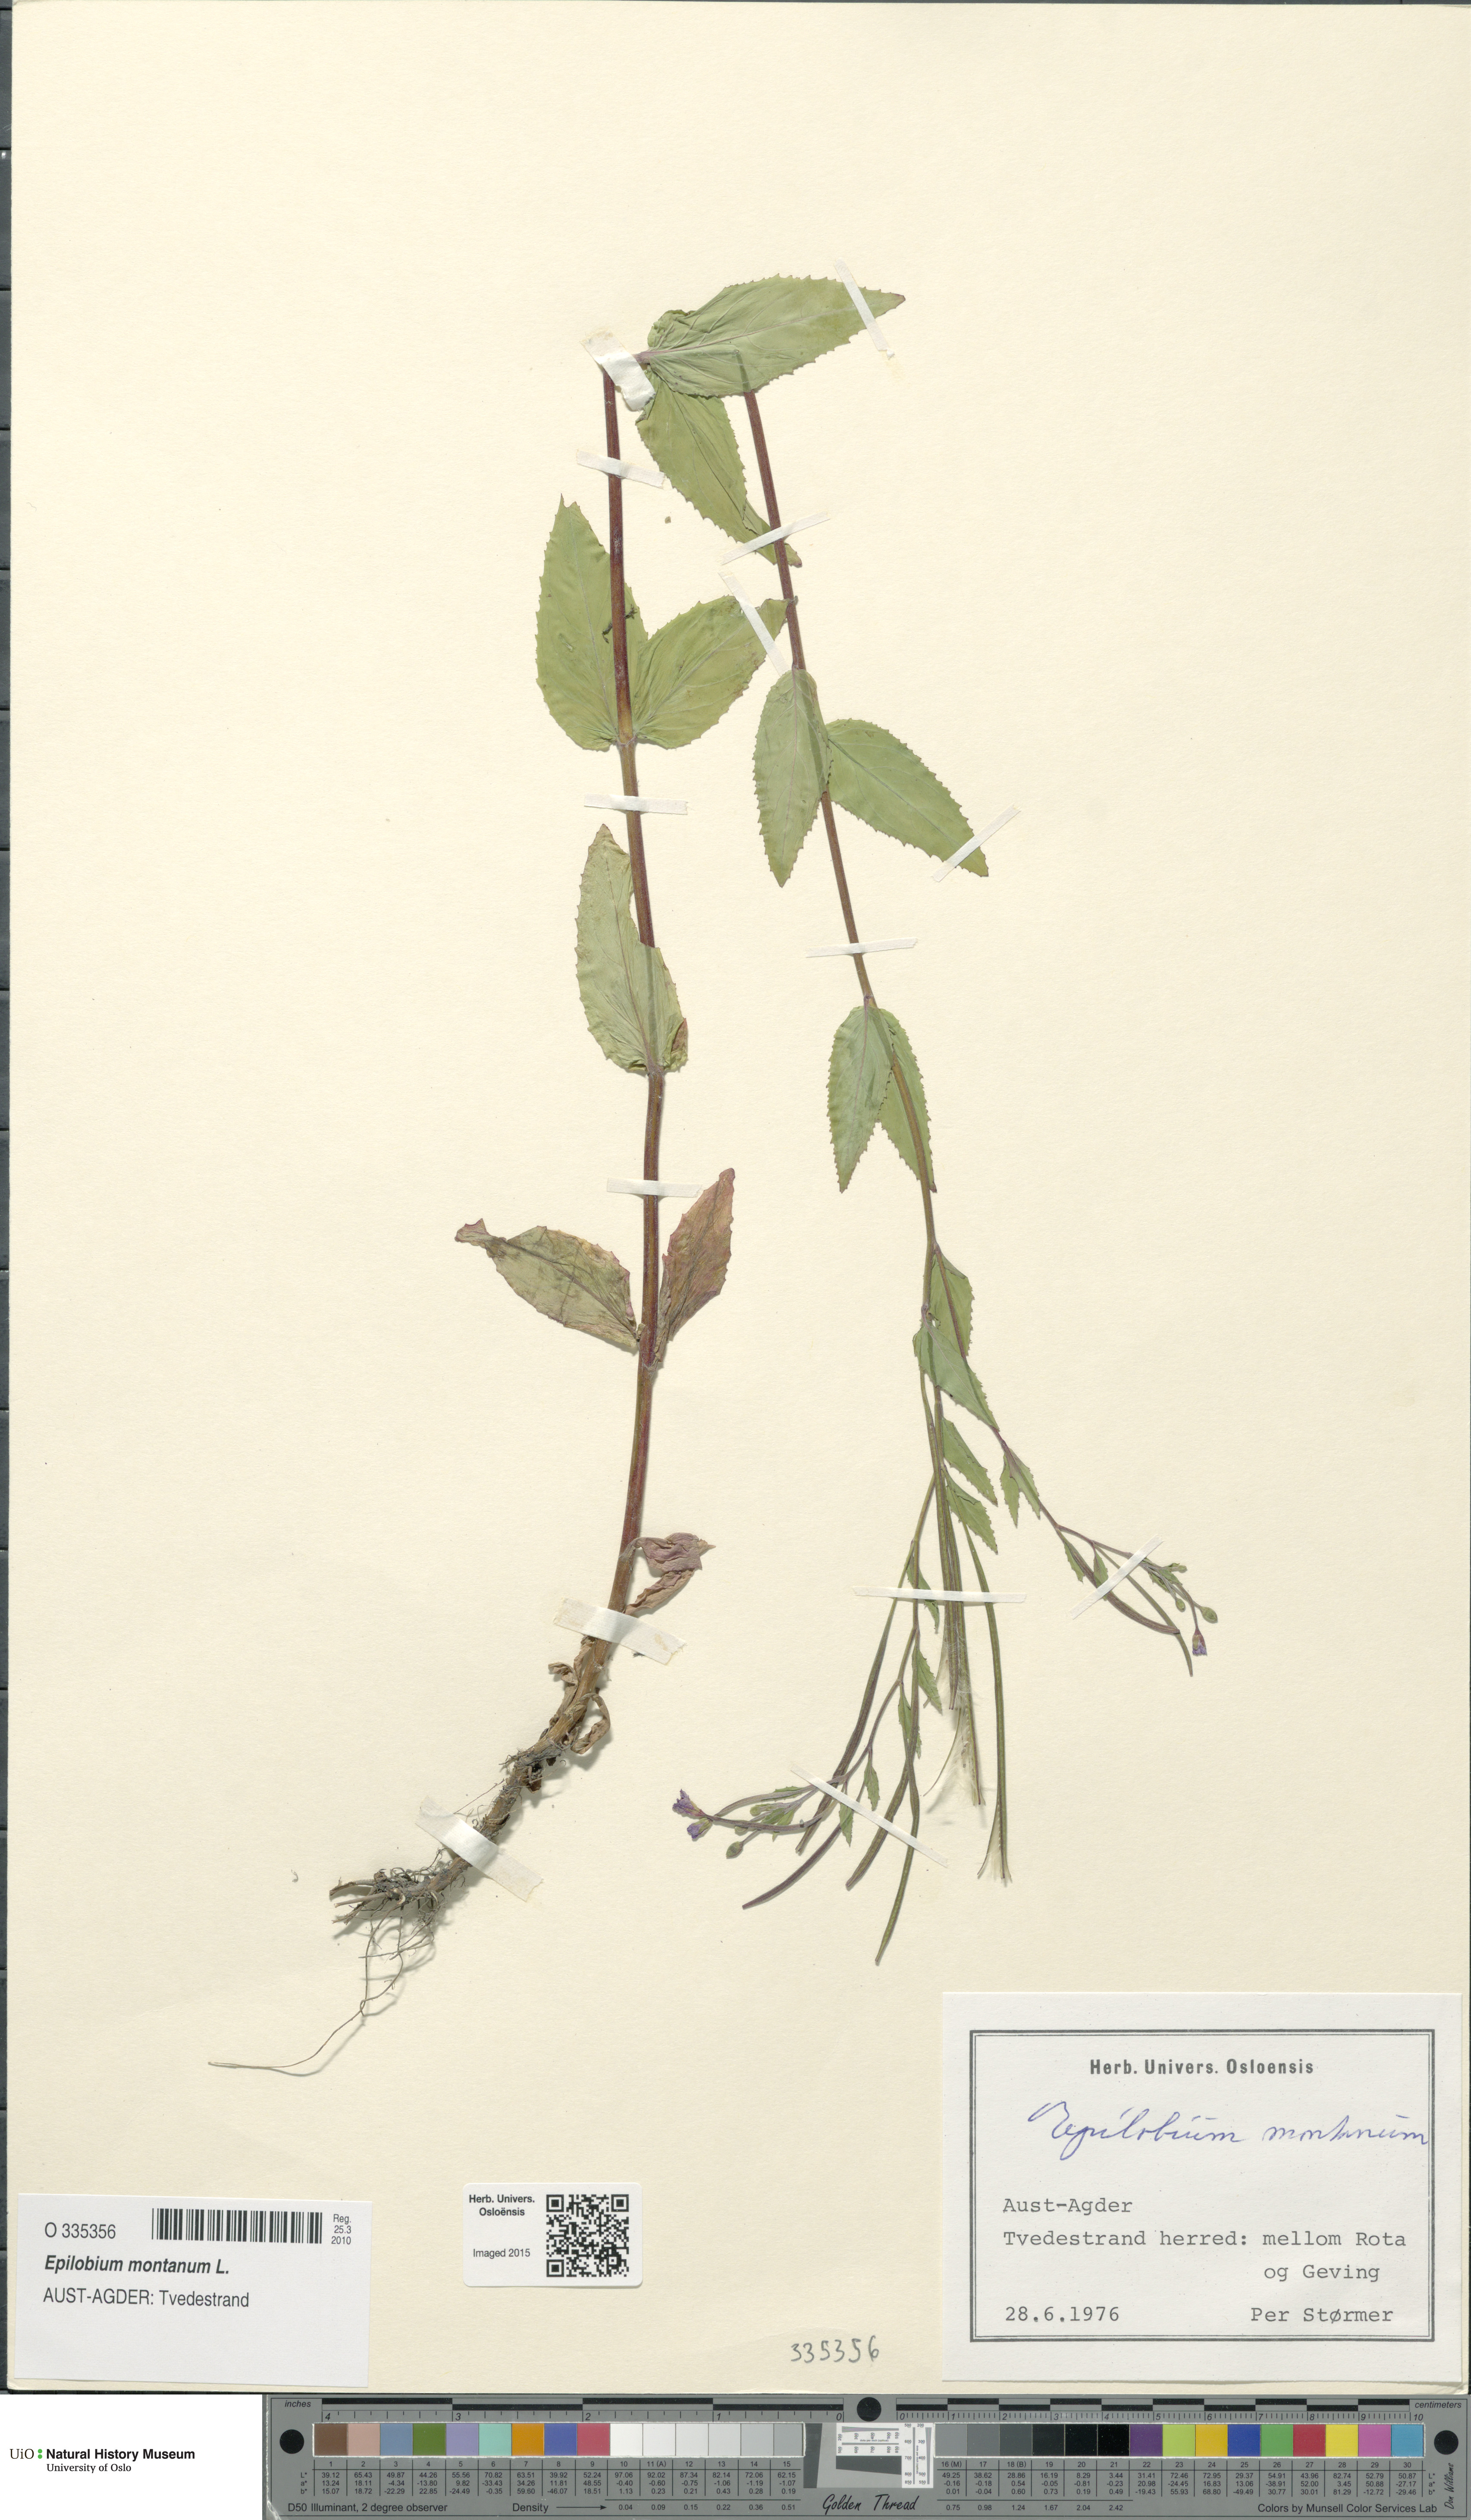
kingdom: Plantae
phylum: Tracheophyta
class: Magnoliopsida
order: Myrtales
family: Onagraceae
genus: Epilobium
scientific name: Epilobium montanum
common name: Broad-leaved willowherb
